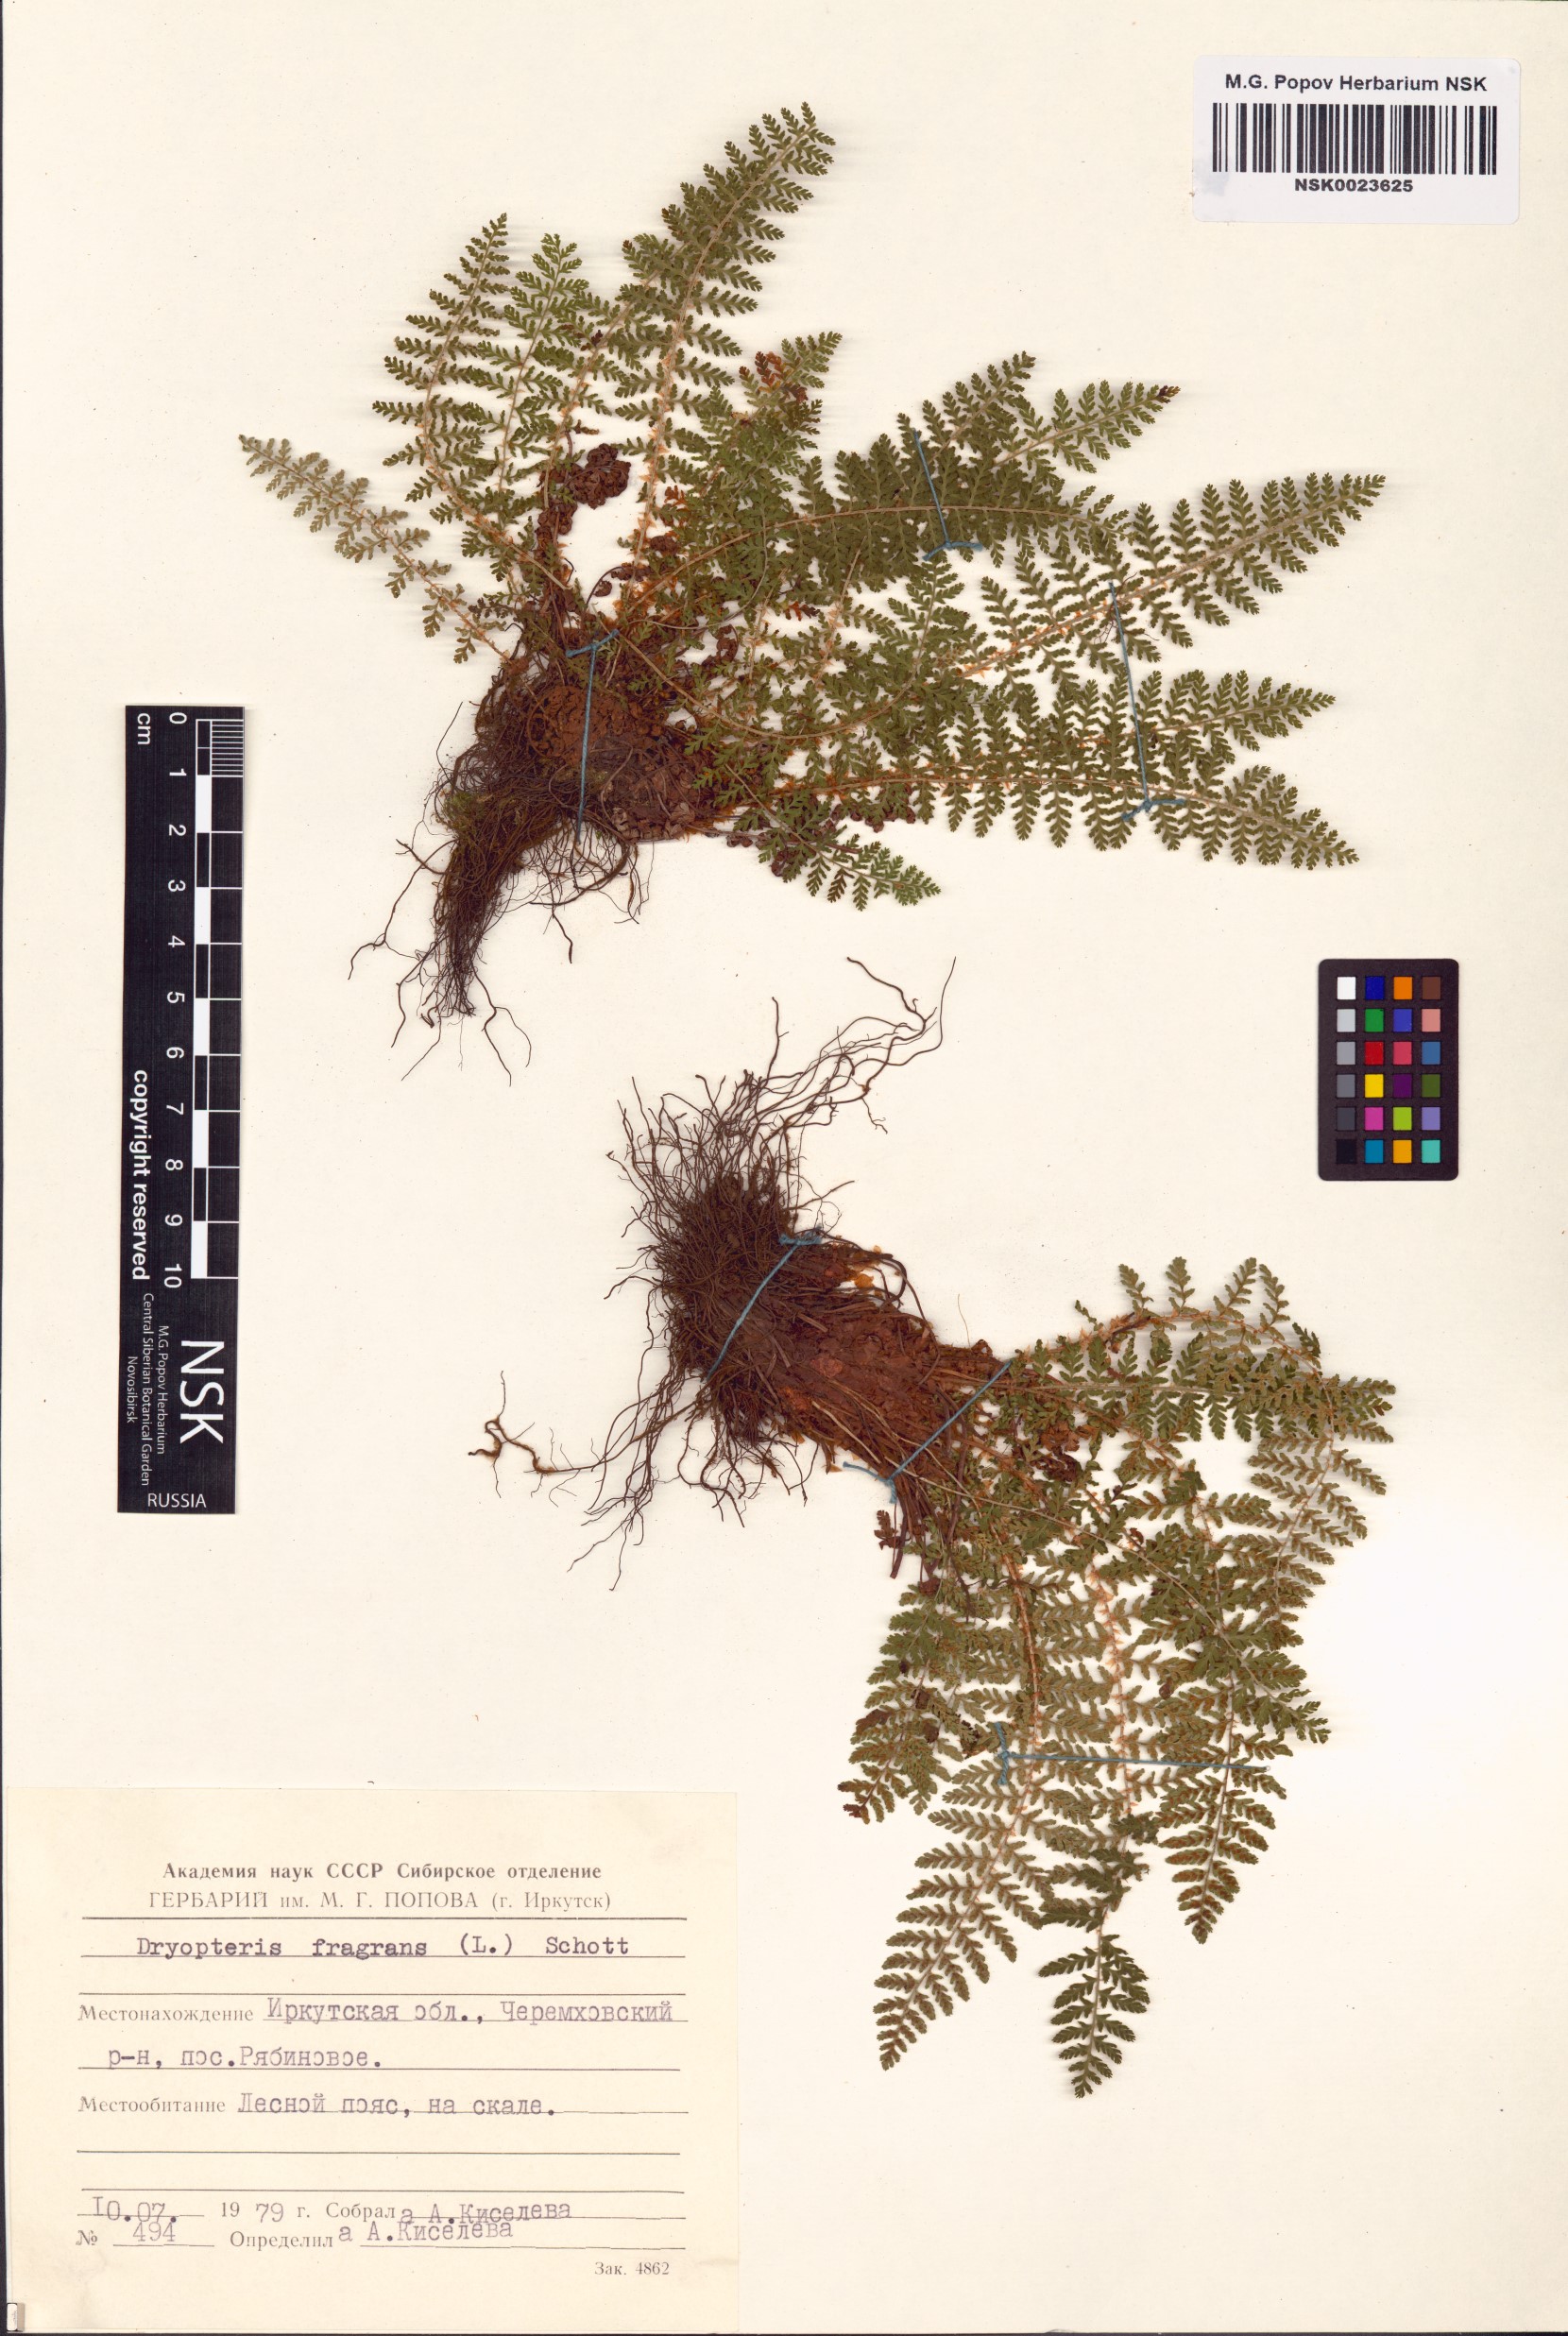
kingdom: Plantae
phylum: Tracheophyta
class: Polypodiopsida
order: Polypodiales
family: Dryopteridaceae
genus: Dryopteris
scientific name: Dryopteris fragrans
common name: Fragrant wood fern
